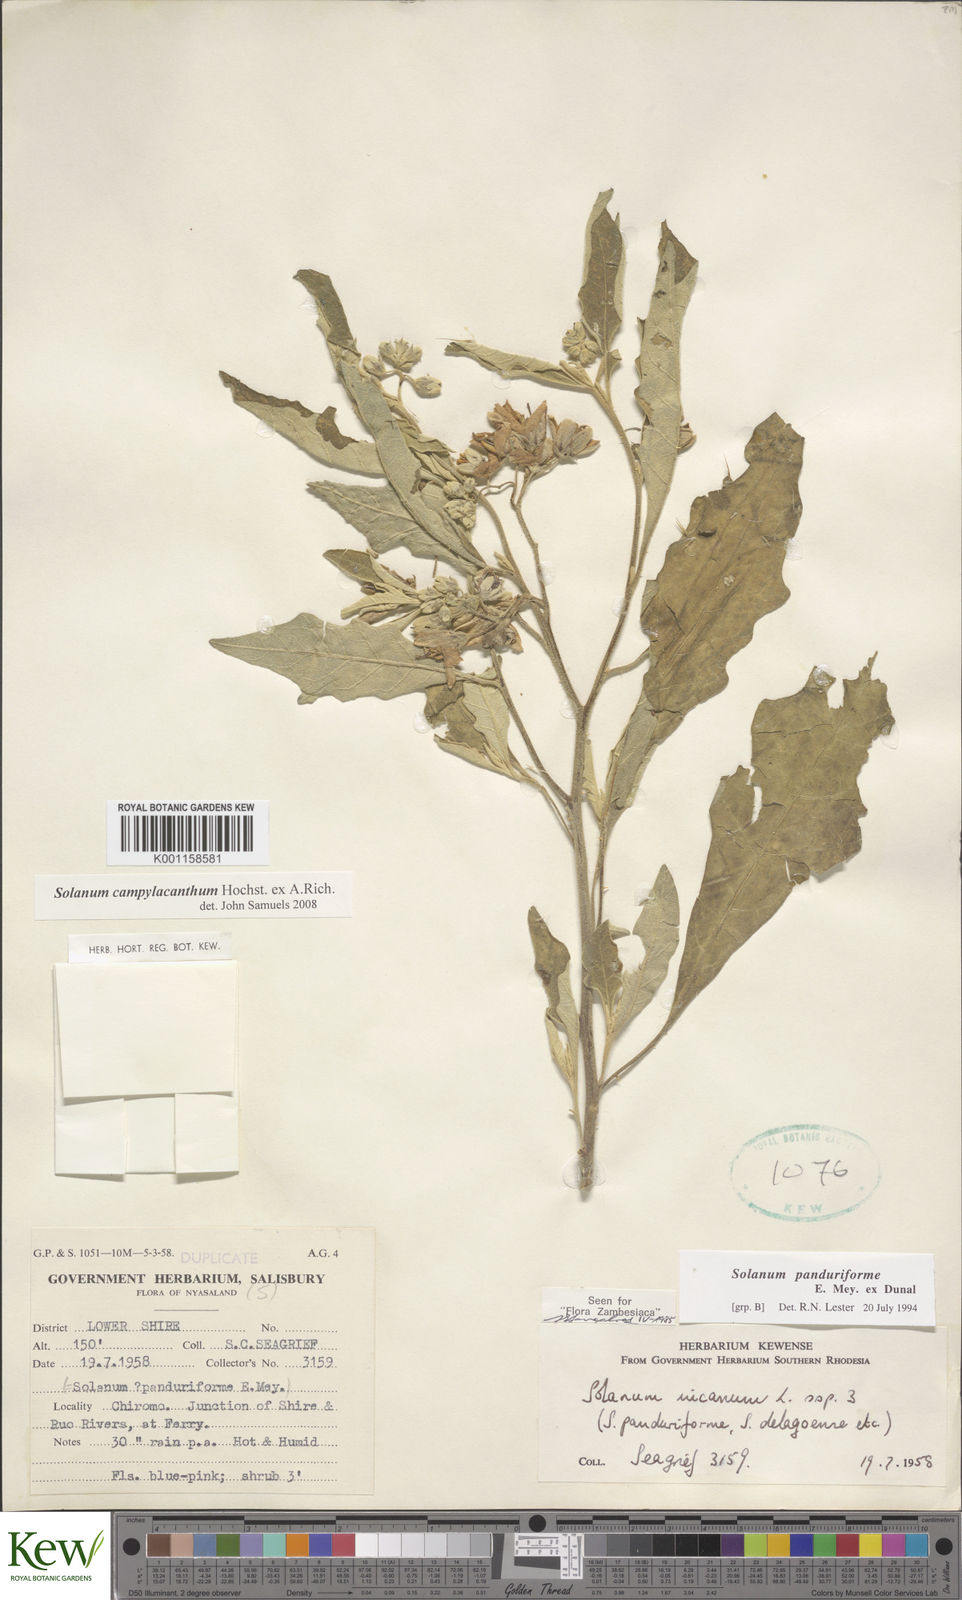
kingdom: Plantae
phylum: Tracheophyta
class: Magnoliopsida
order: Solanales
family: Solanaceae
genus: Solanum
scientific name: Solanum campylacanthum
